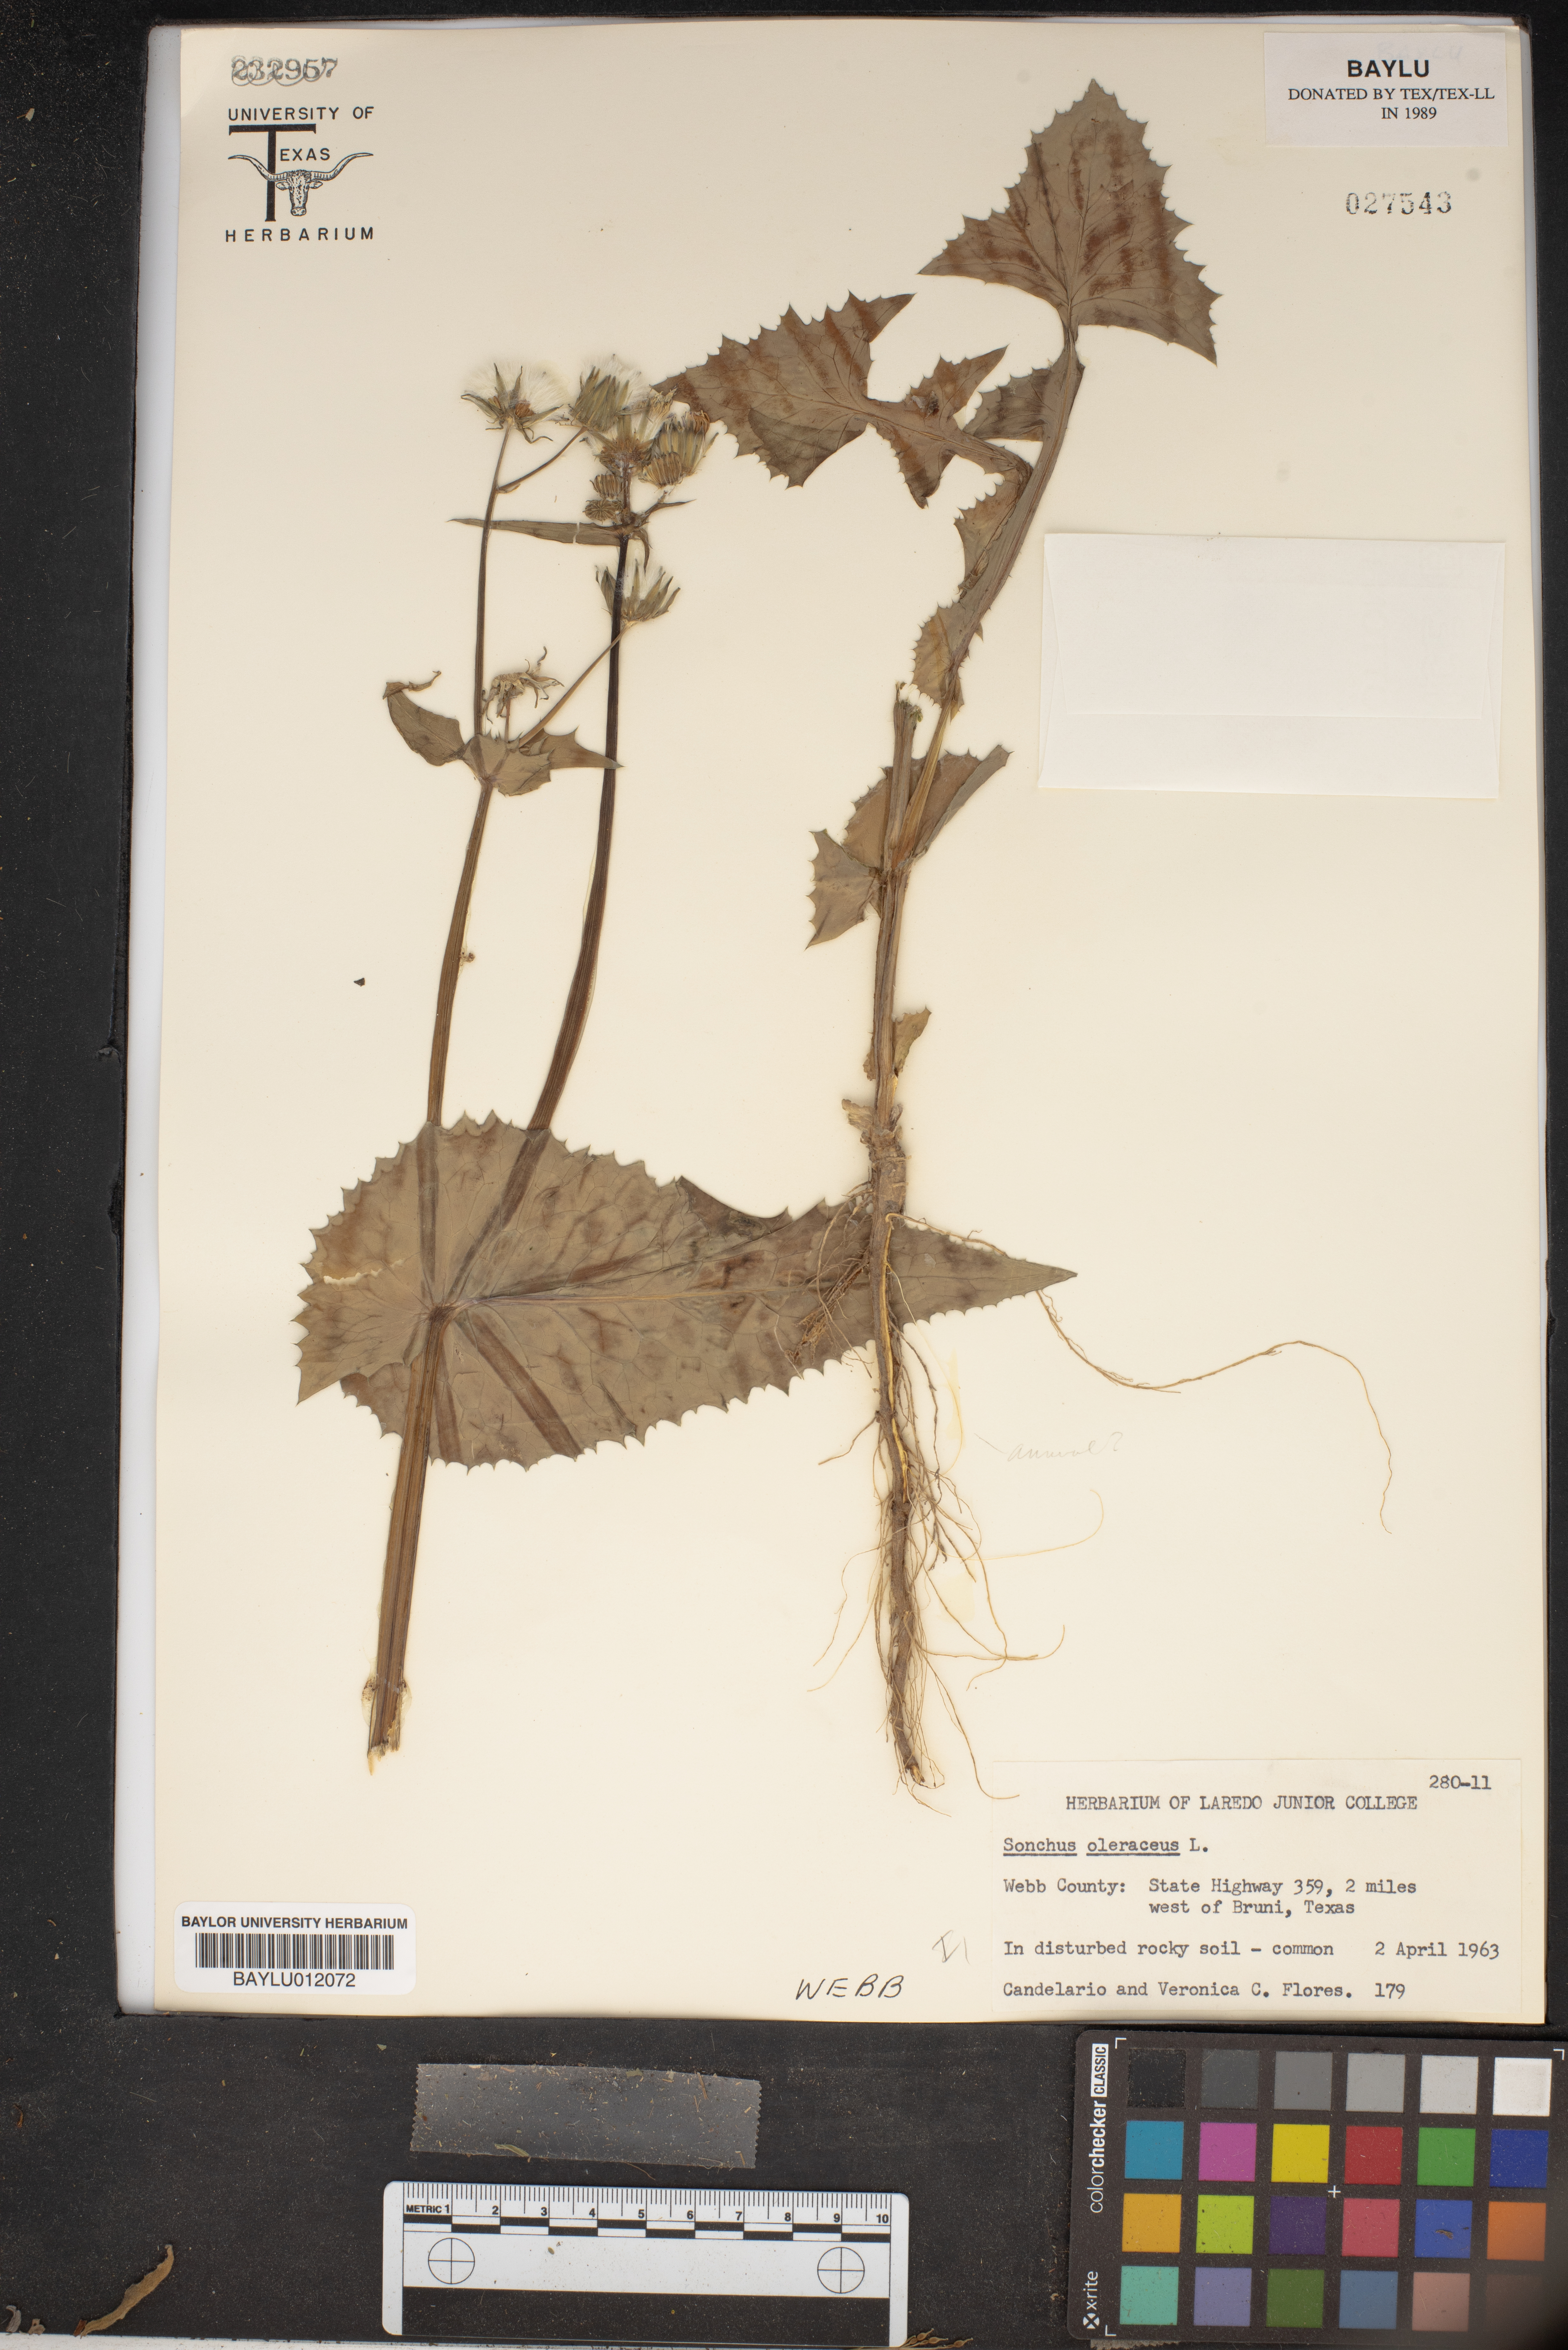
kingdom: Plantae
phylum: Tracheophyta
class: Magnoliopsida
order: Asterales
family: Asteraceae
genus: Sonchus
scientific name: Sonchus oleraceus
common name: Common sowthistle
